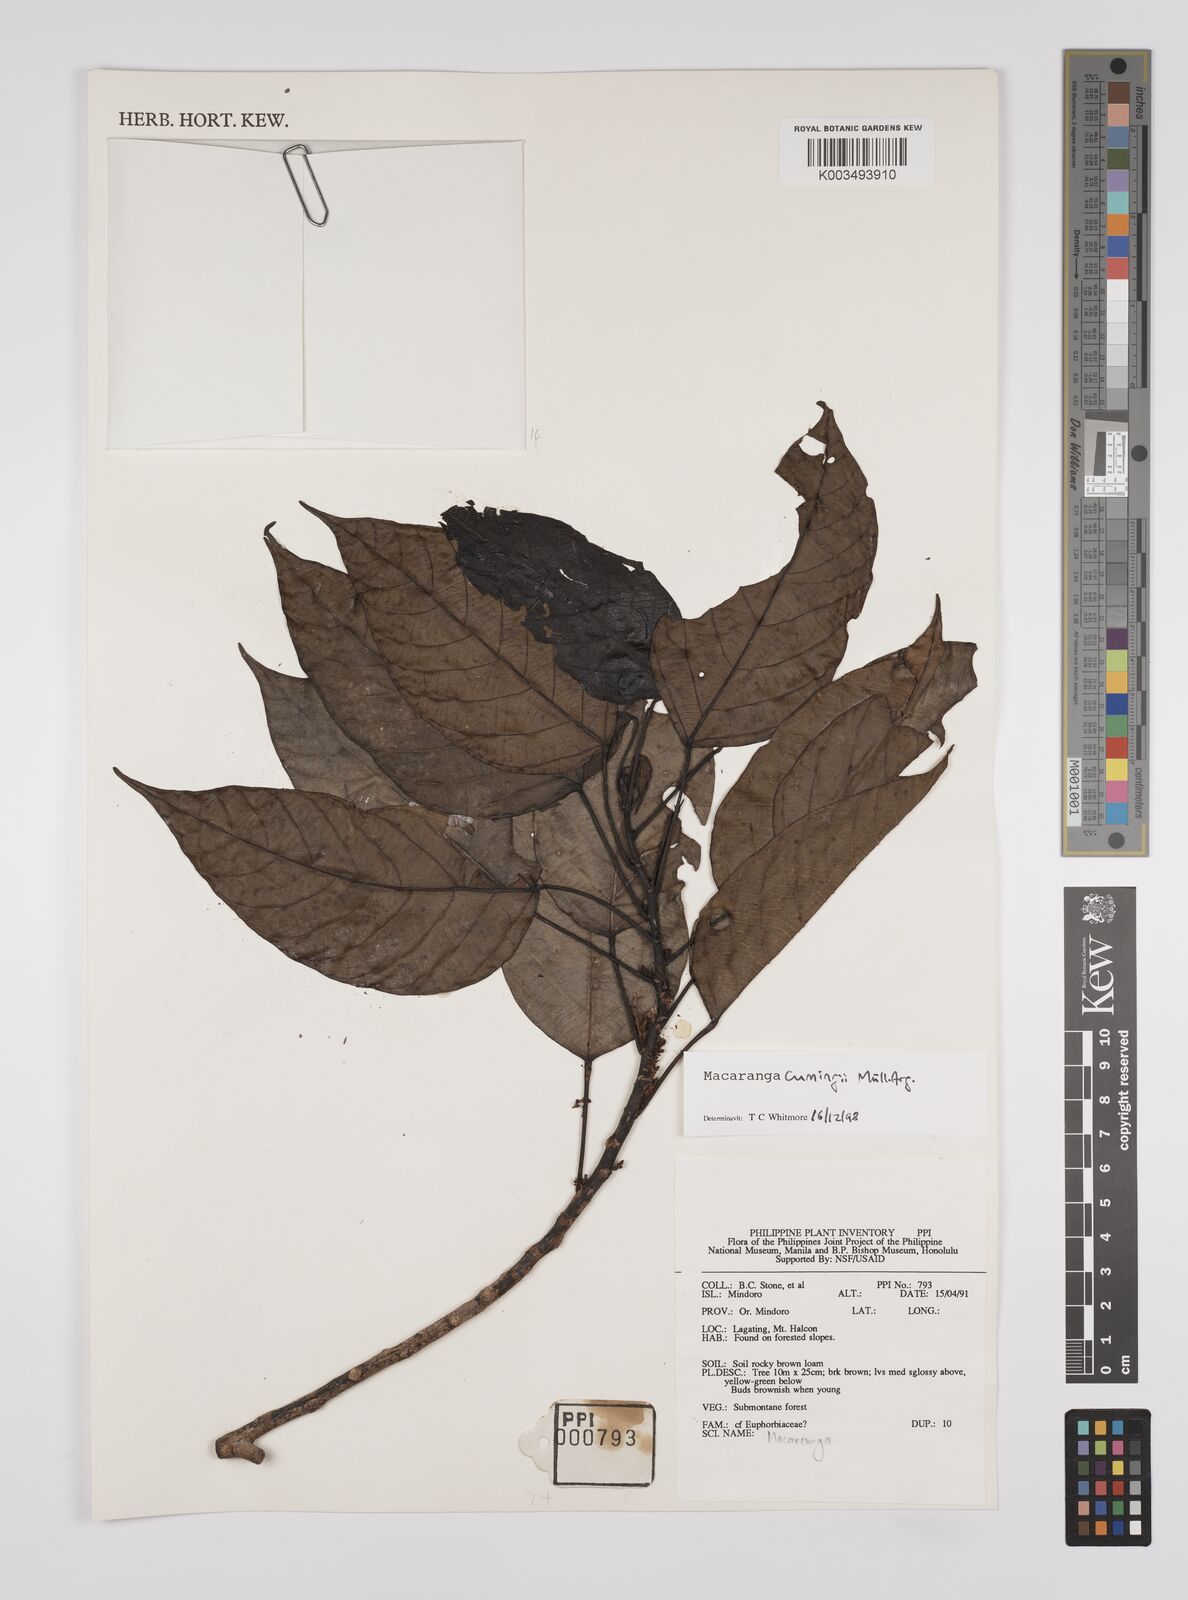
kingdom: Plantae
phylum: Tracheophyta
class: Magnoliopsida
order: Malpighiales
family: Euphorbiaceae
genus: Macaranga
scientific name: Macaranga cumingii
